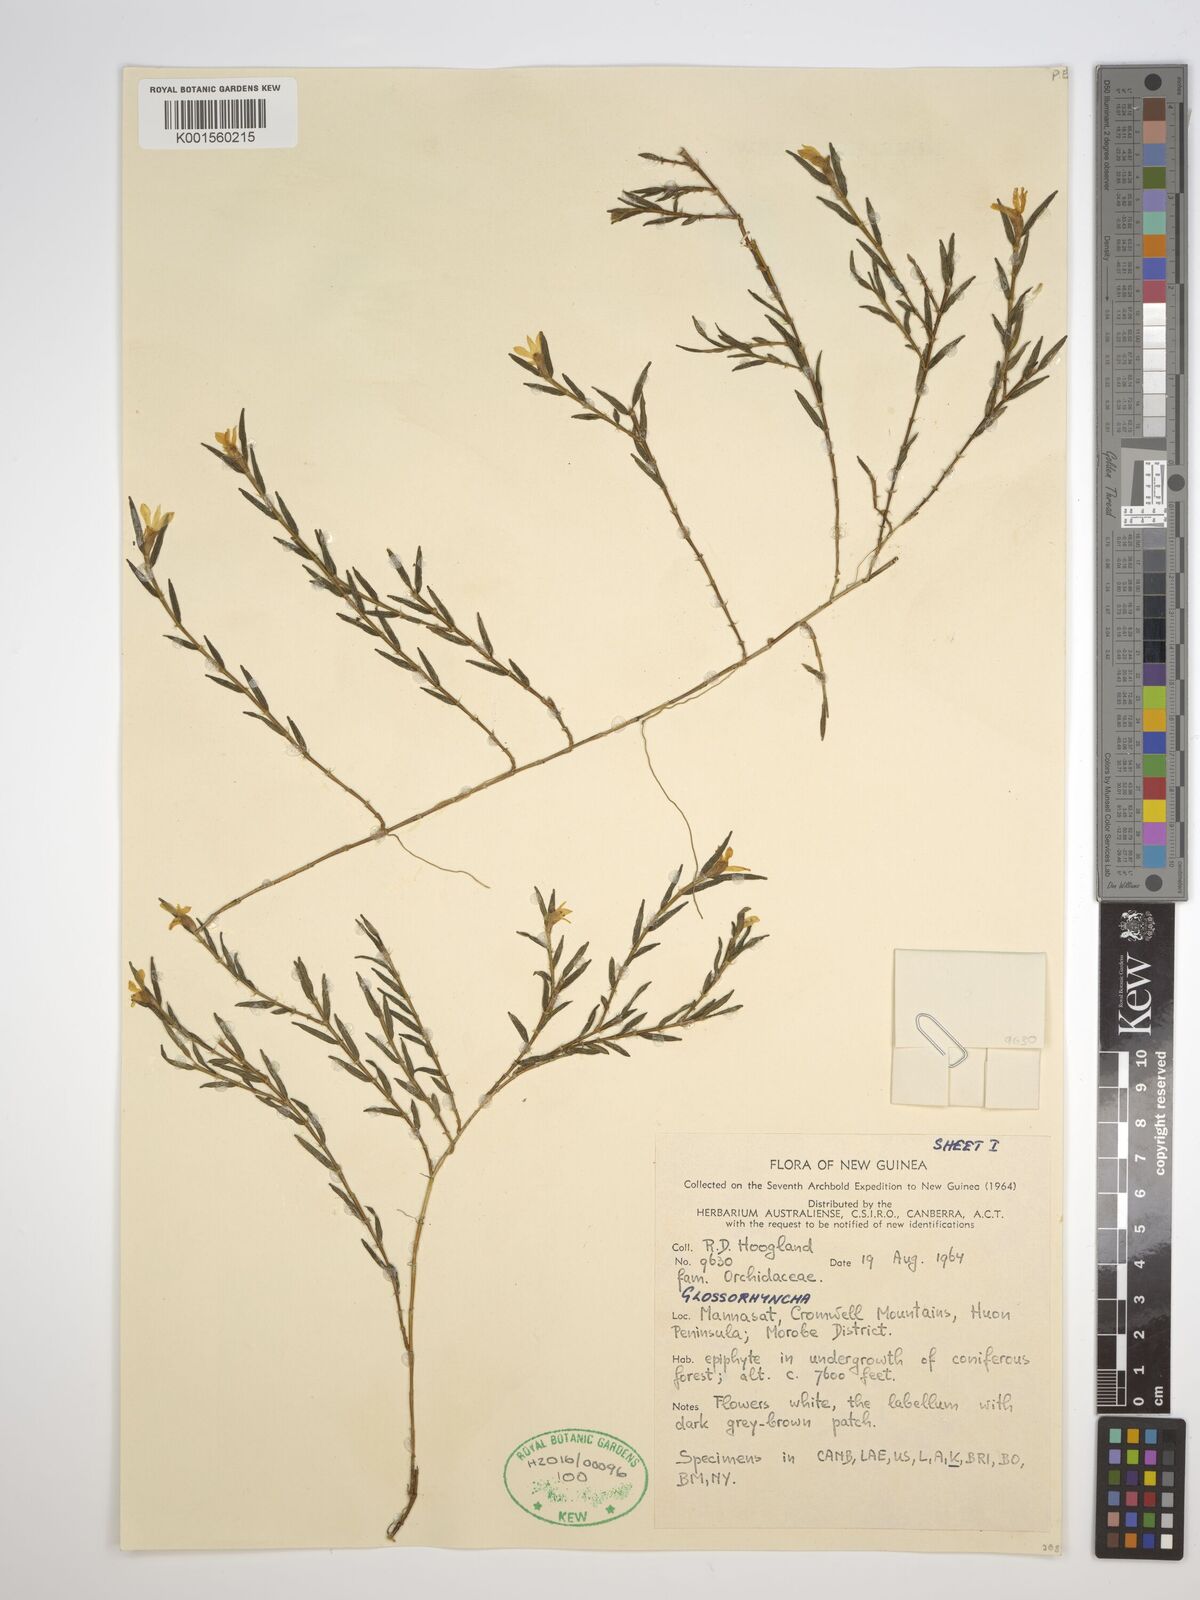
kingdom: Plantae
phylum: Tracheophyta
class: Liliopsida
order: Asparagales
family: Orchidaceae
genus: Glomera
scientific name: Glomera
